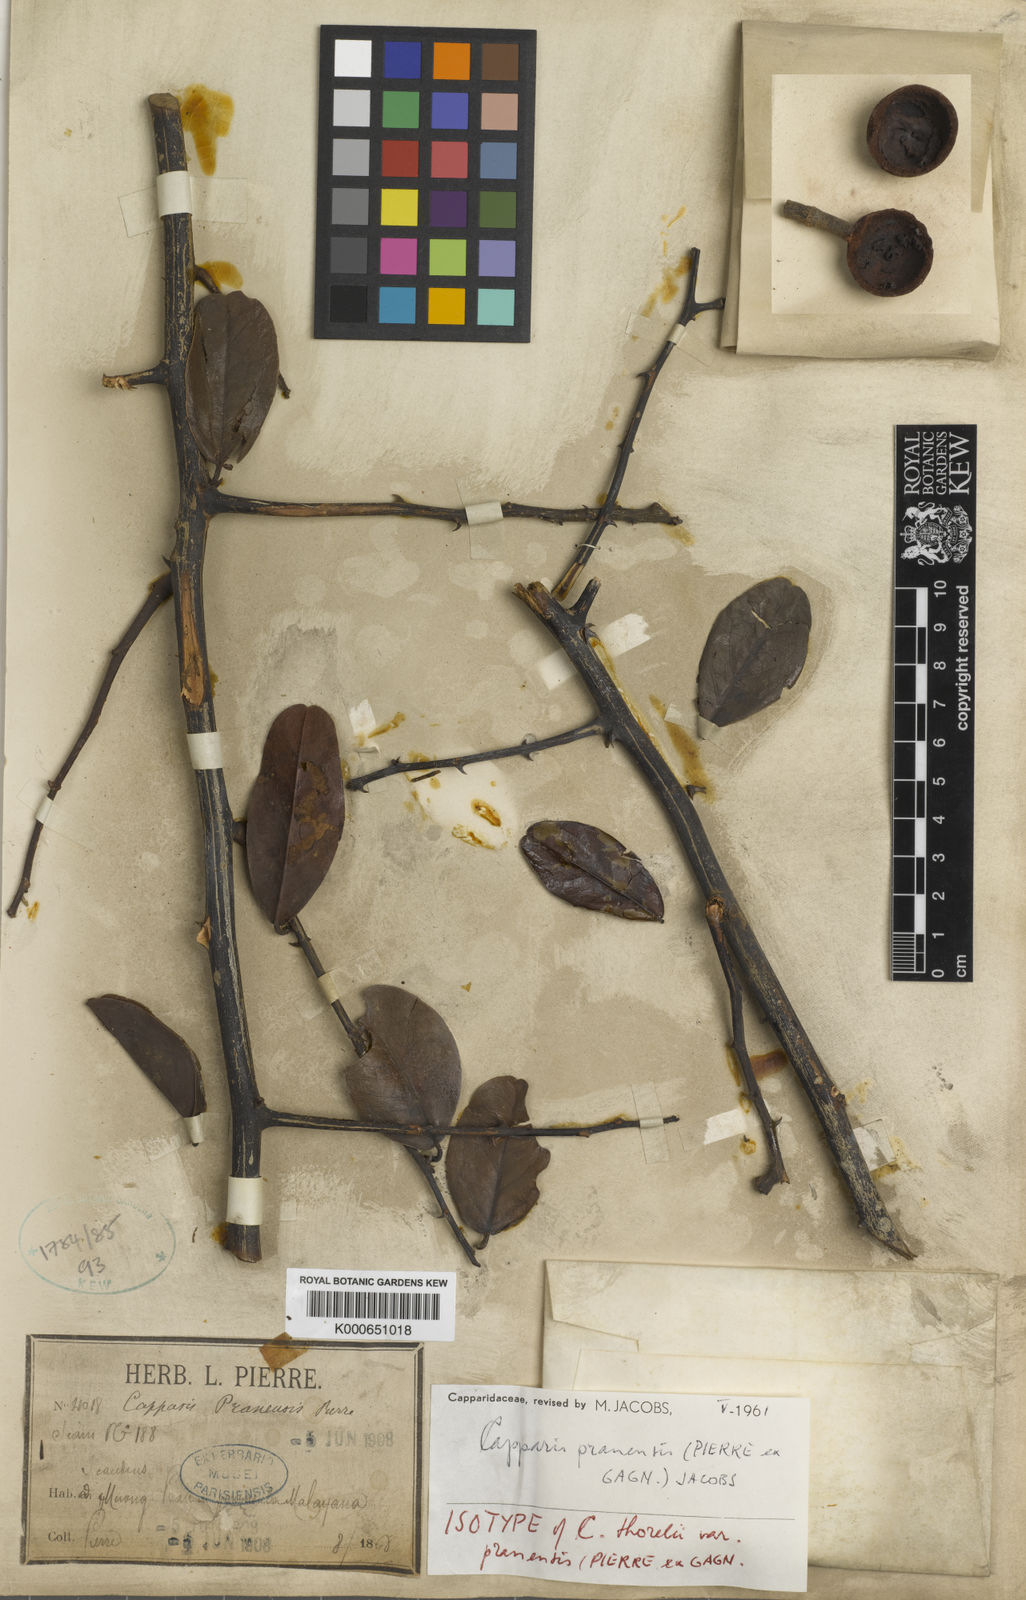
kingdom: Plantae
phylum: Tracheophyta
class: Magnoliopsida
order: Brassicales
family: Capparaceae
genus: Capparis
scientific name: Capparis pranensis
